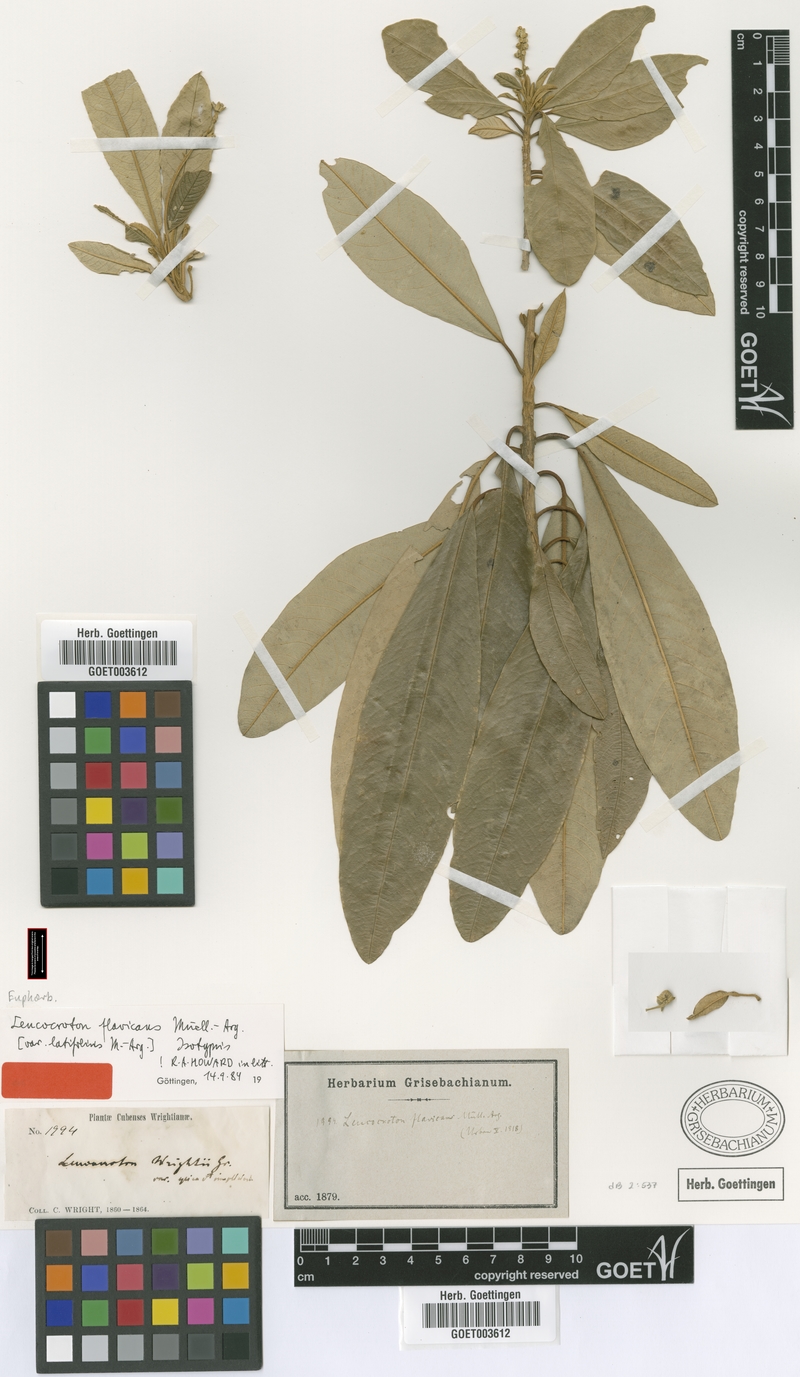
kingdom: Plantae
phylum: Tracheophyta
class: Magnoliopsida
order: Malpighiales
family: Euphorbiaceae
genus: Leucocroton
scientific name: Leucocroton flavicans
